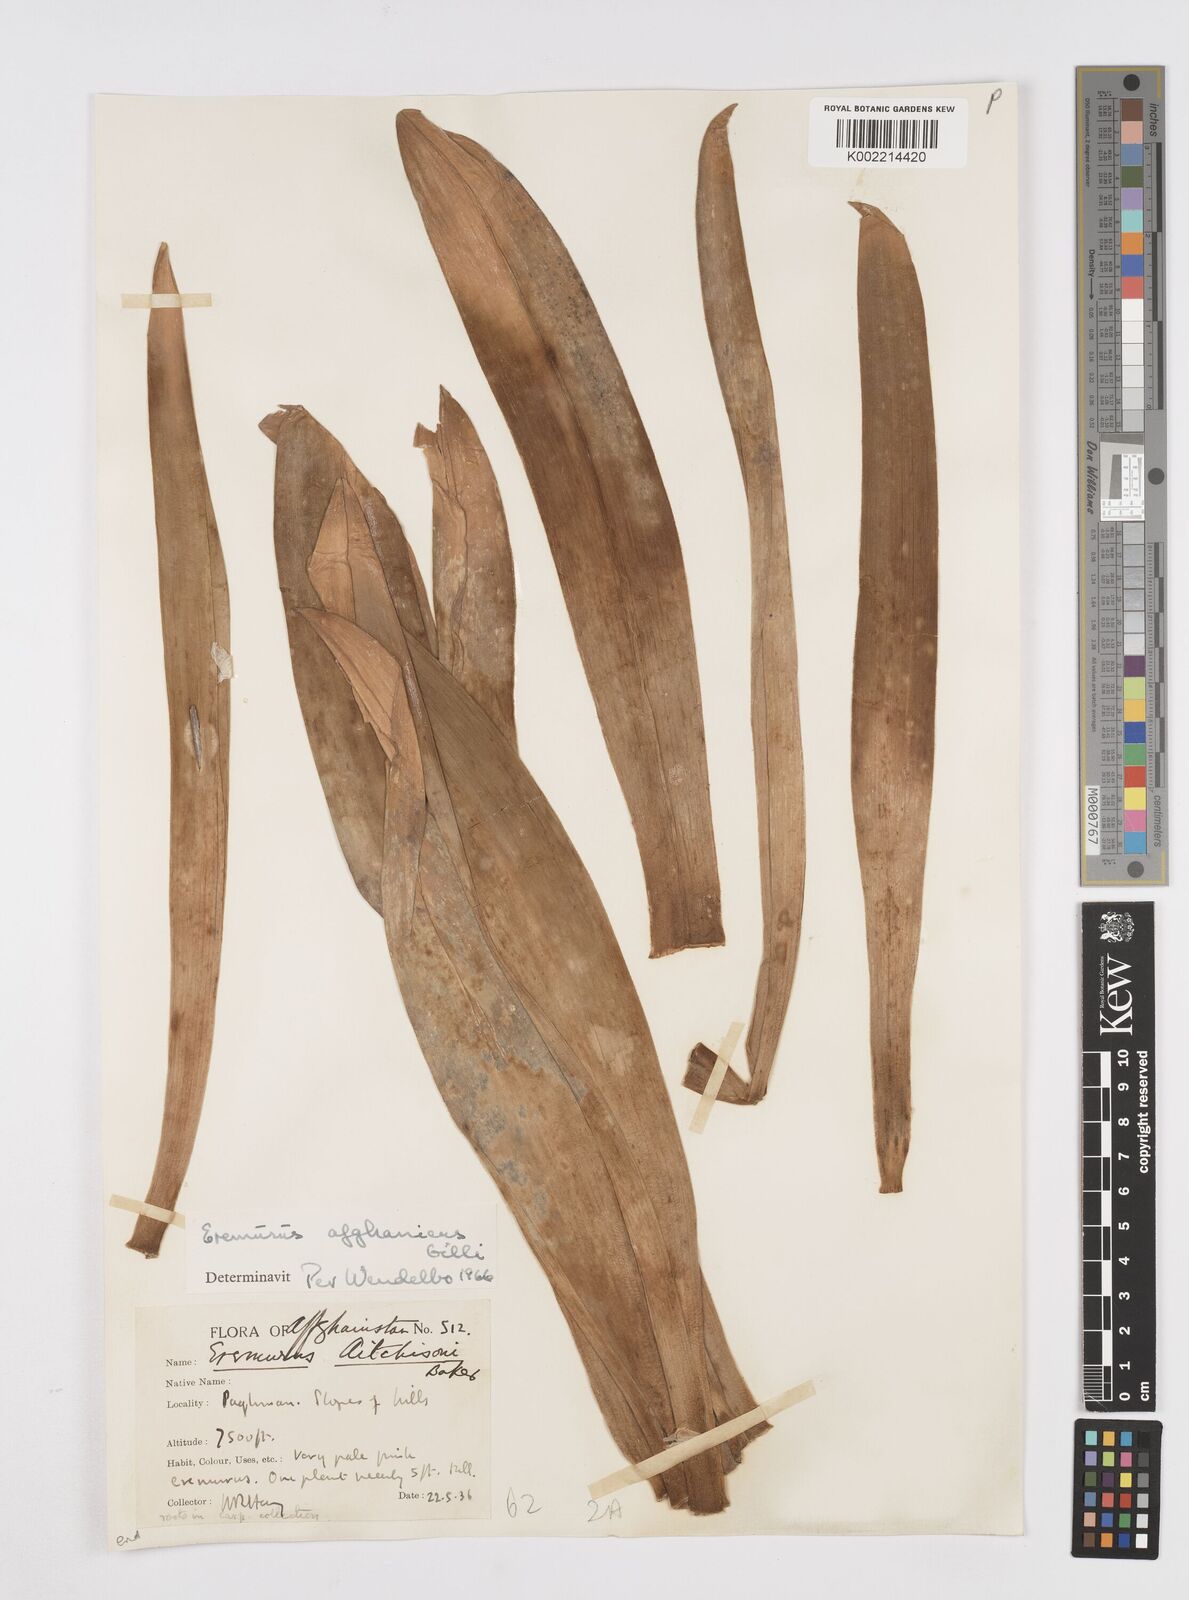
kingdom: Plantae
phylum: Tracheophyta
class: Liliopsida
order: Asparagales
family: Asphodelaceae
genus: Eremurus
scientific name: Eremurus afghanicus
